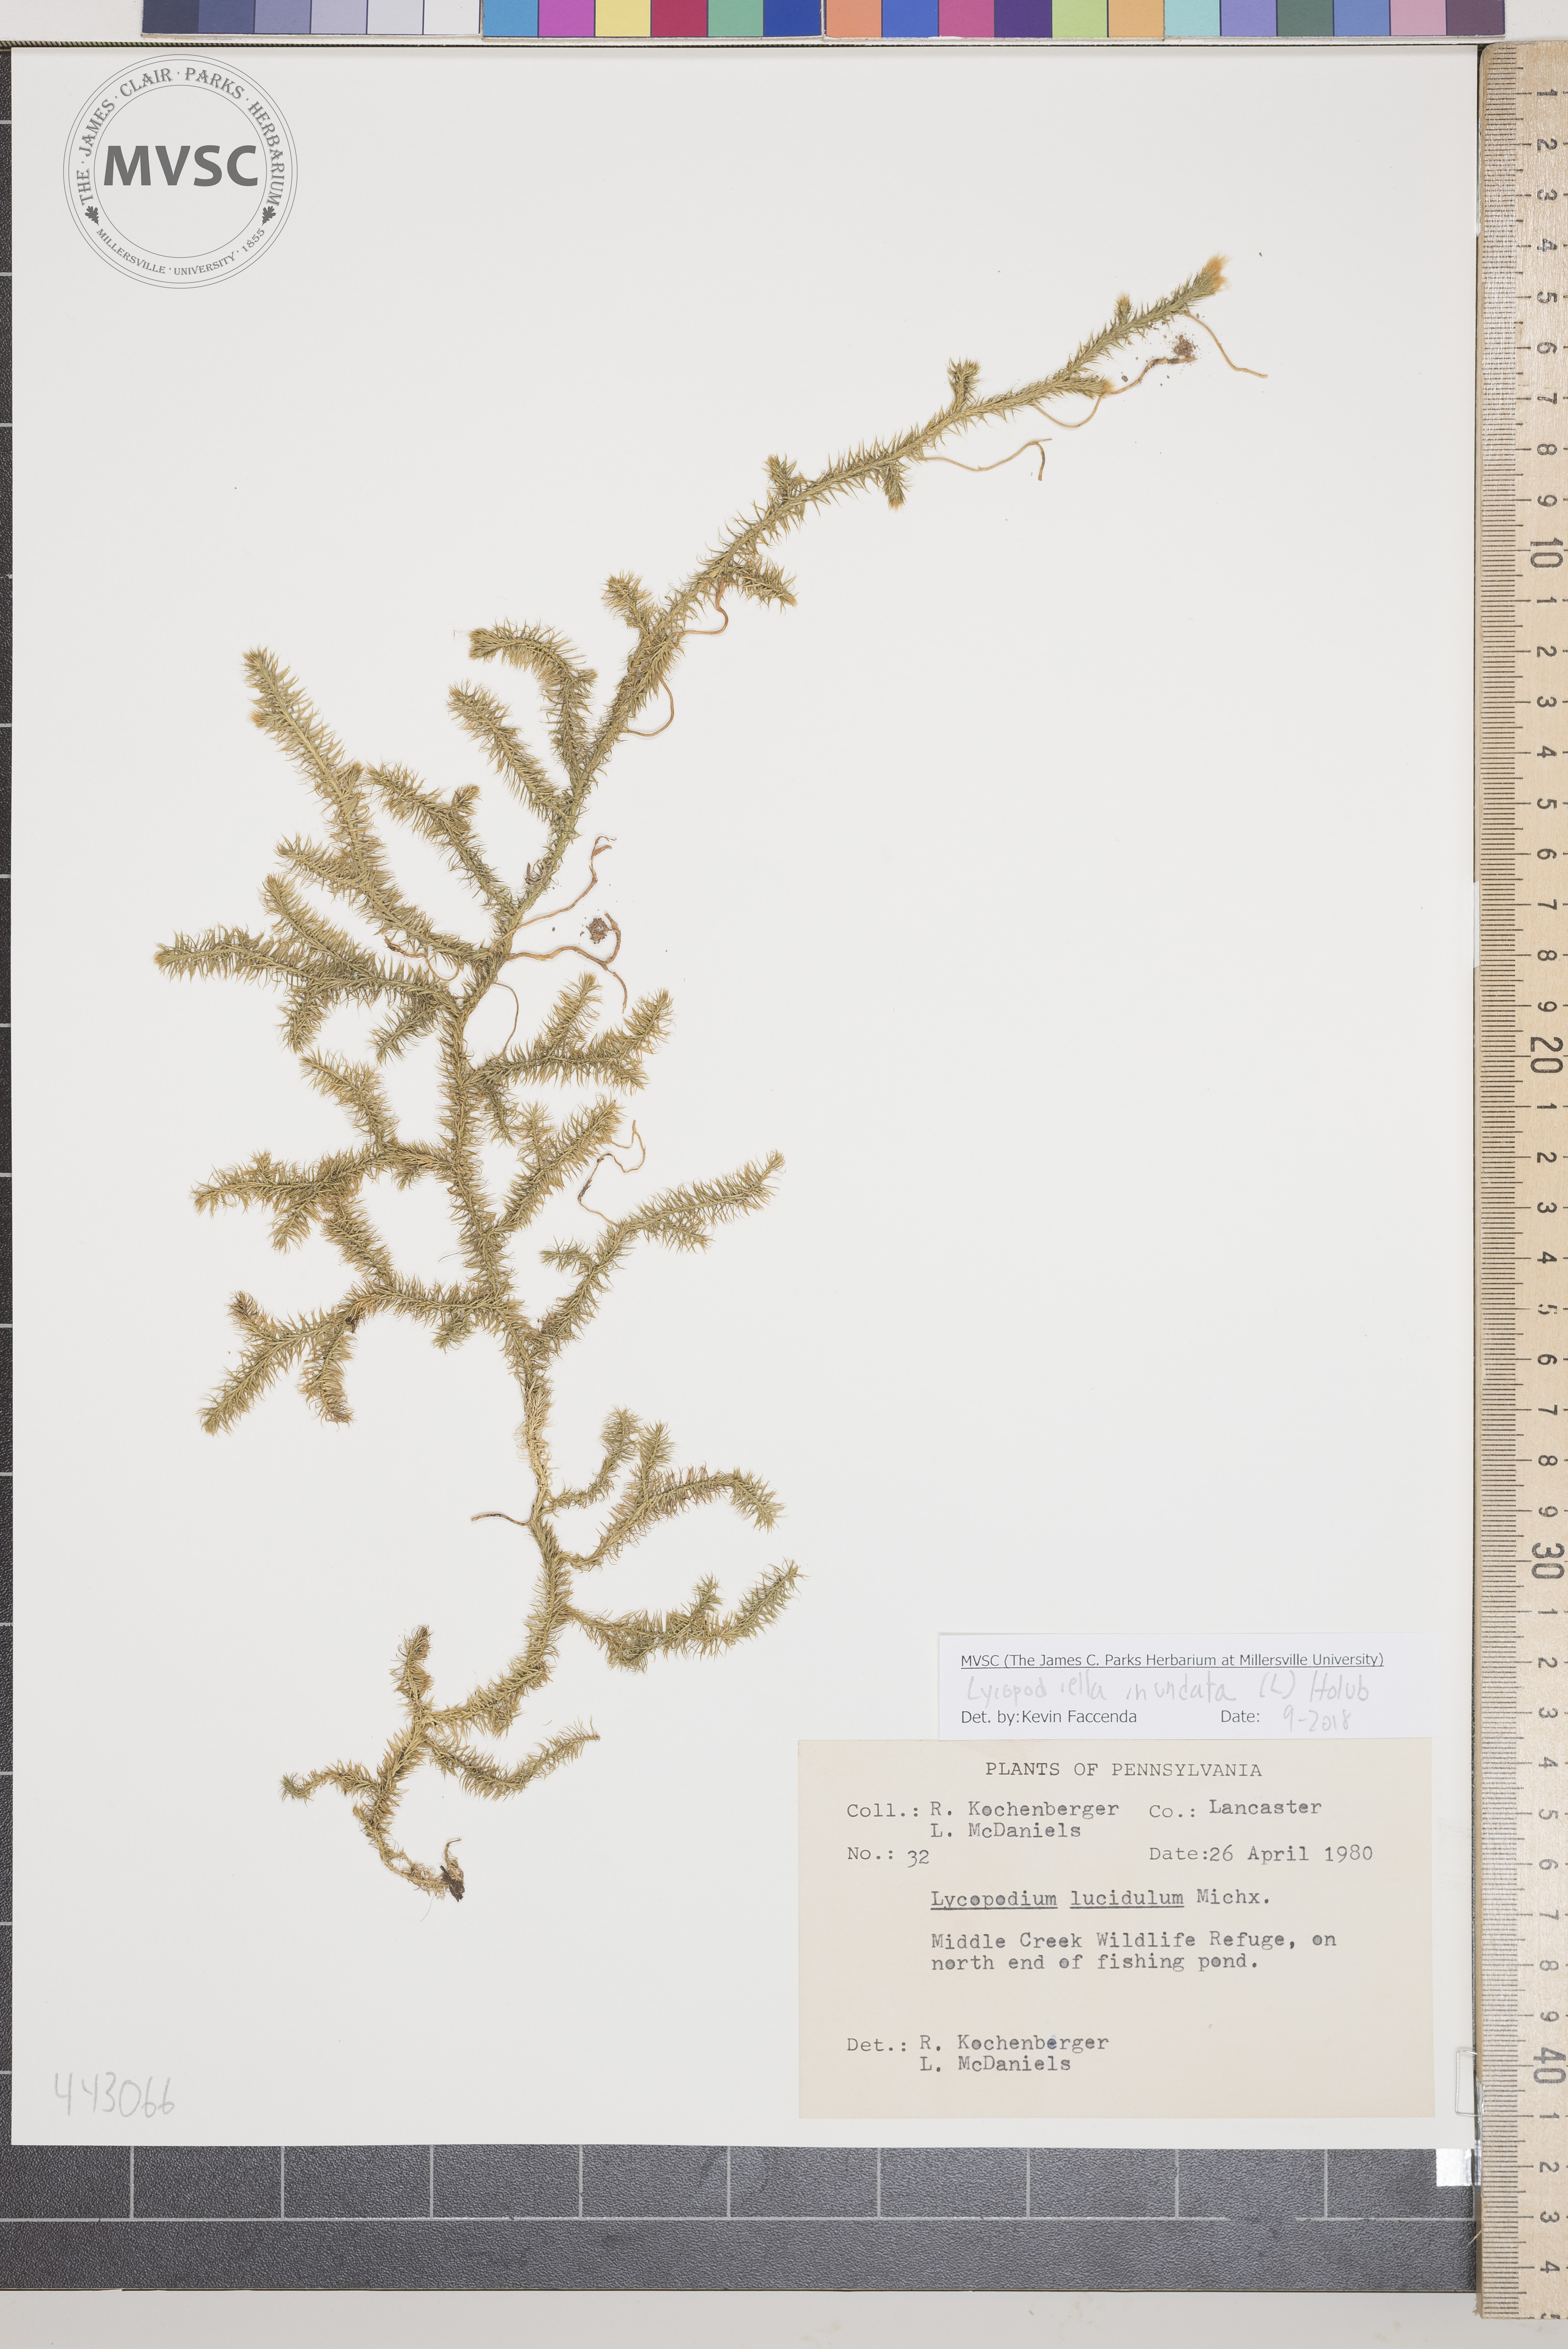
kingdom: Plantae
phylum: Tracheophyta
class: Lycopodiopsida
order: Lycopodiales
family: Lycopodiaceae
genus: Lycopodiella
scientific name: Lycopodiella inundata
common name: Marsh clubmoss
